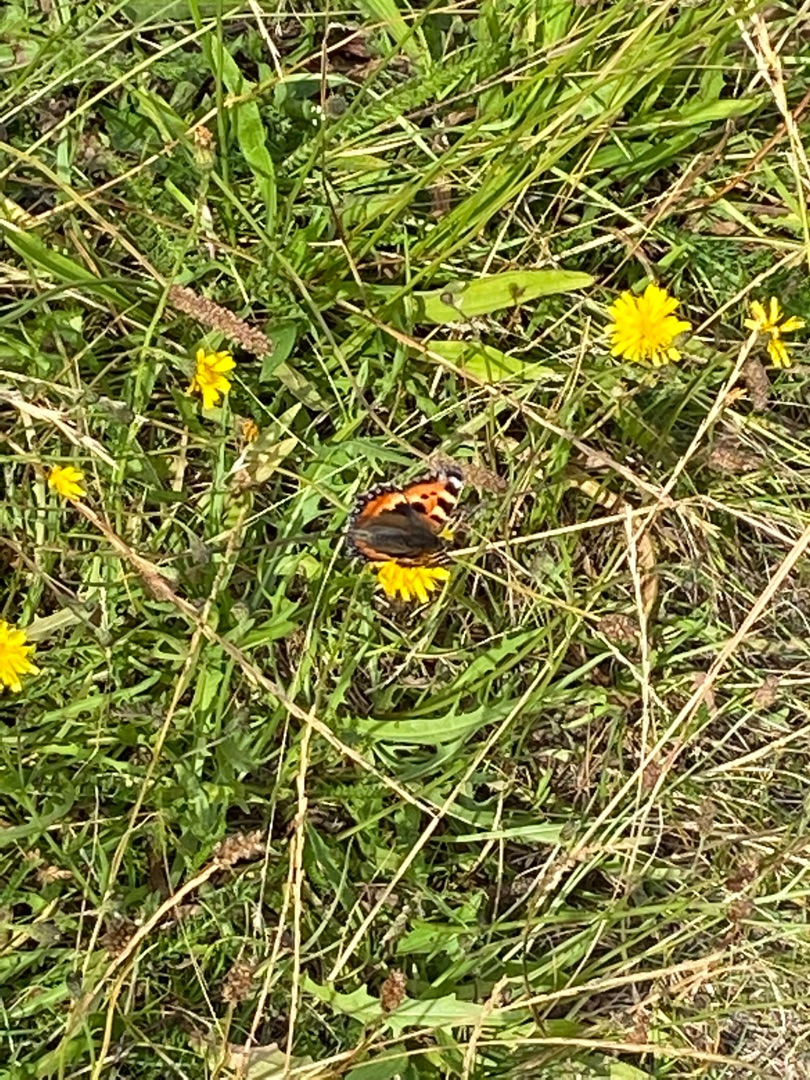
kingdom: Animalia
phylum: Arthropoda
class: Insecta
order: Lepidoptera
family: Nymphalidae
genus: Aglais
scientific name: Aglais urticae
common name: Nældens takvinge
